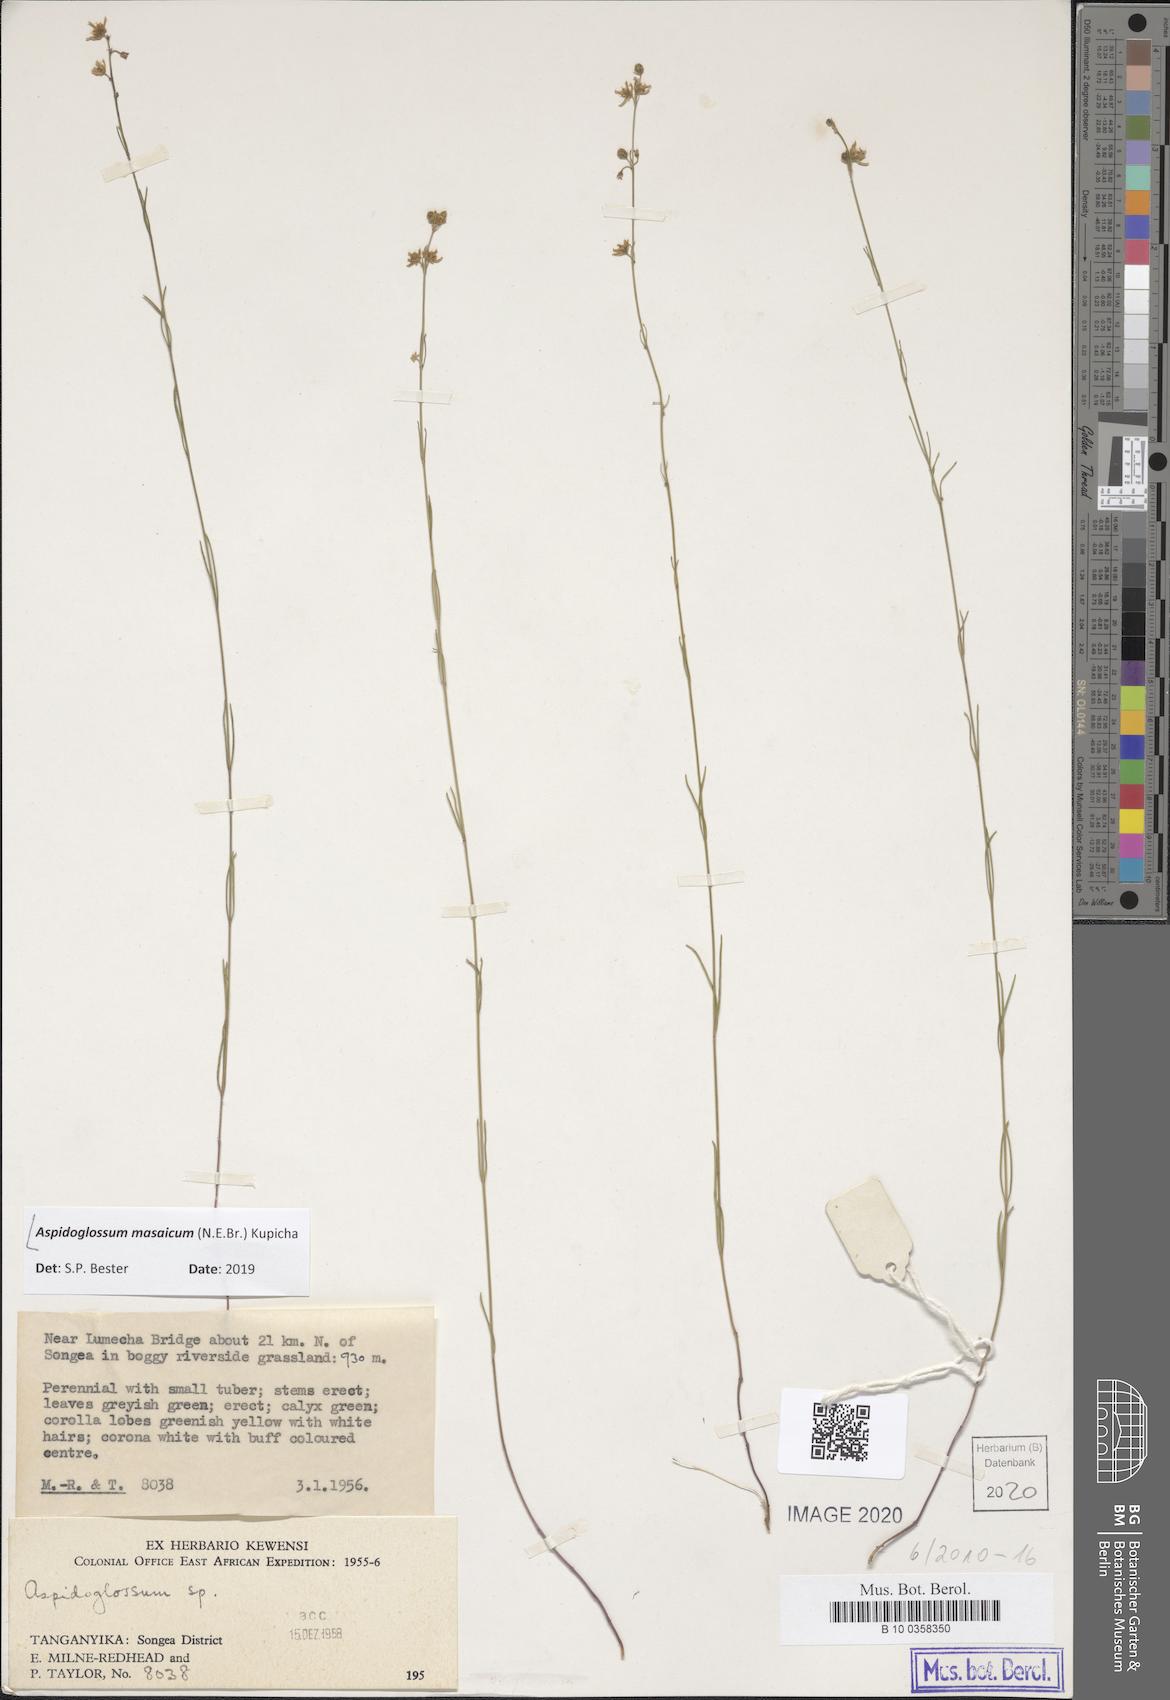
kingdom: Plantae
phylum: Tracheophyta
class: Magnoliopsida
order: Gentianales
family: Apocynaceae
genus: Aspidoglossum
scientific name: Aspidoglossum masaicum
